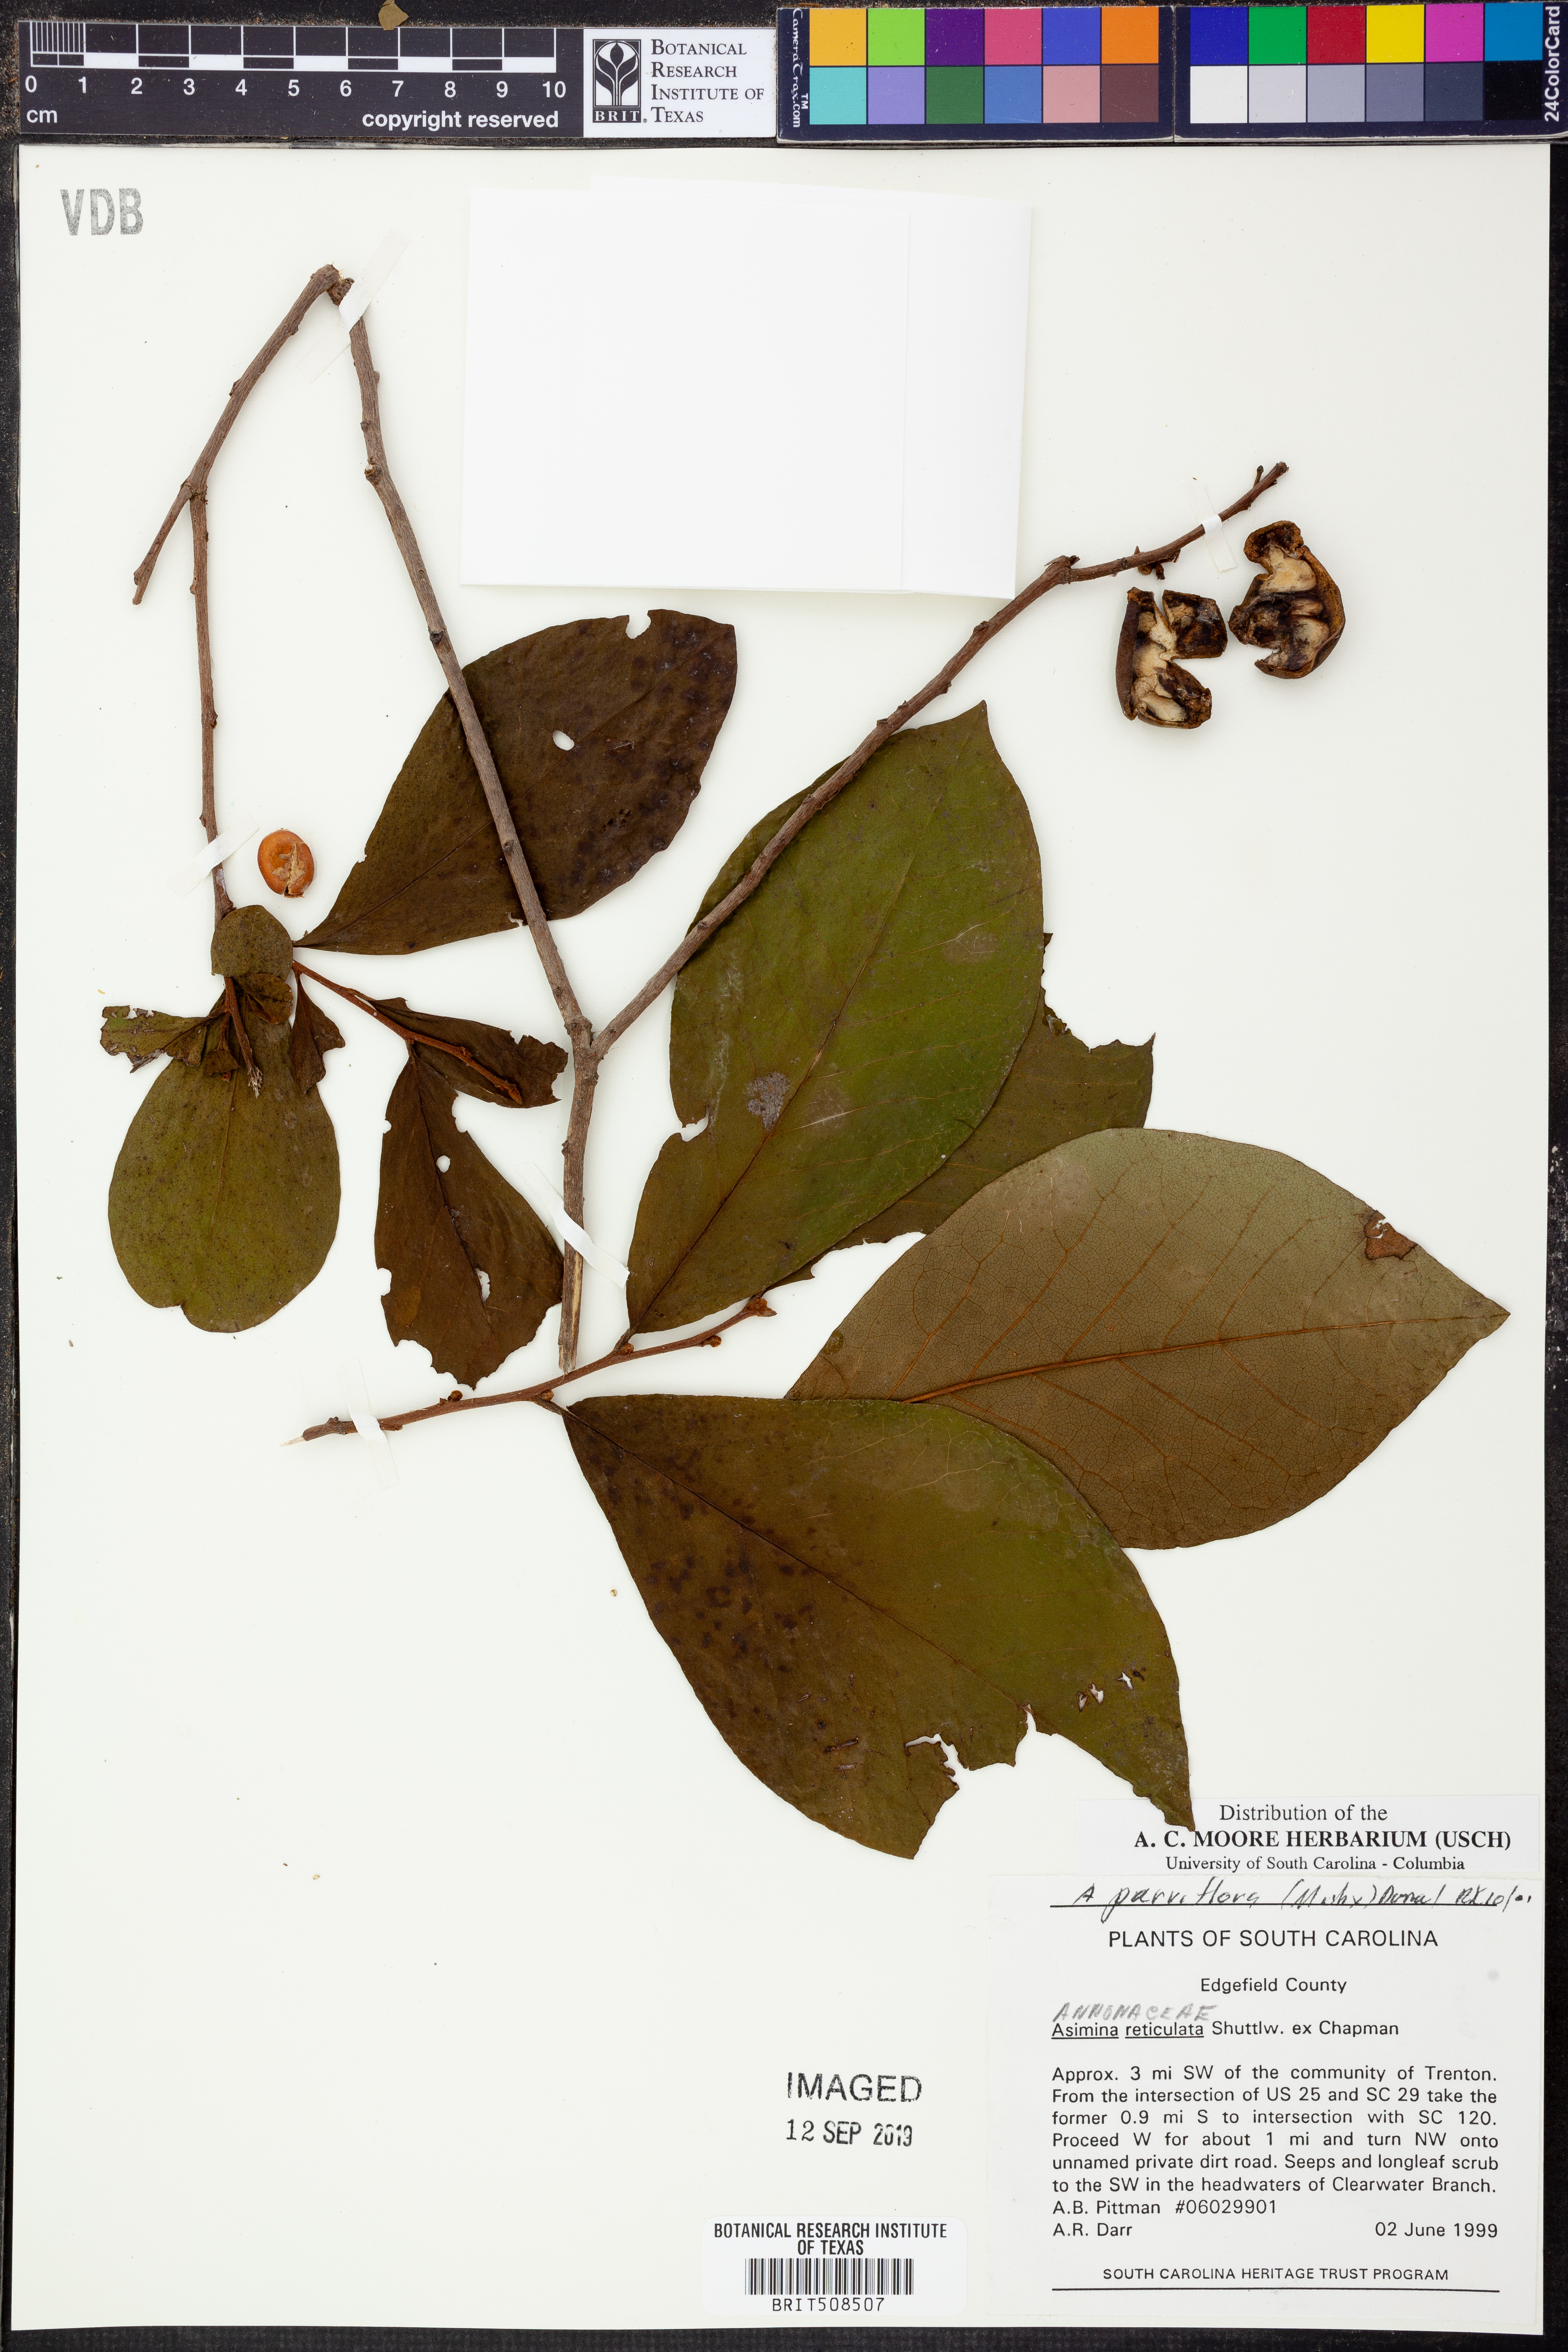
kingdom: Plantae
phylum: Tracheophyta
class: Magnoliopsida
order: Magnoliales
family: Annonaceae
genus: Asimina
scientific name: Asimina reticulata
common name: Flag pawpaw
